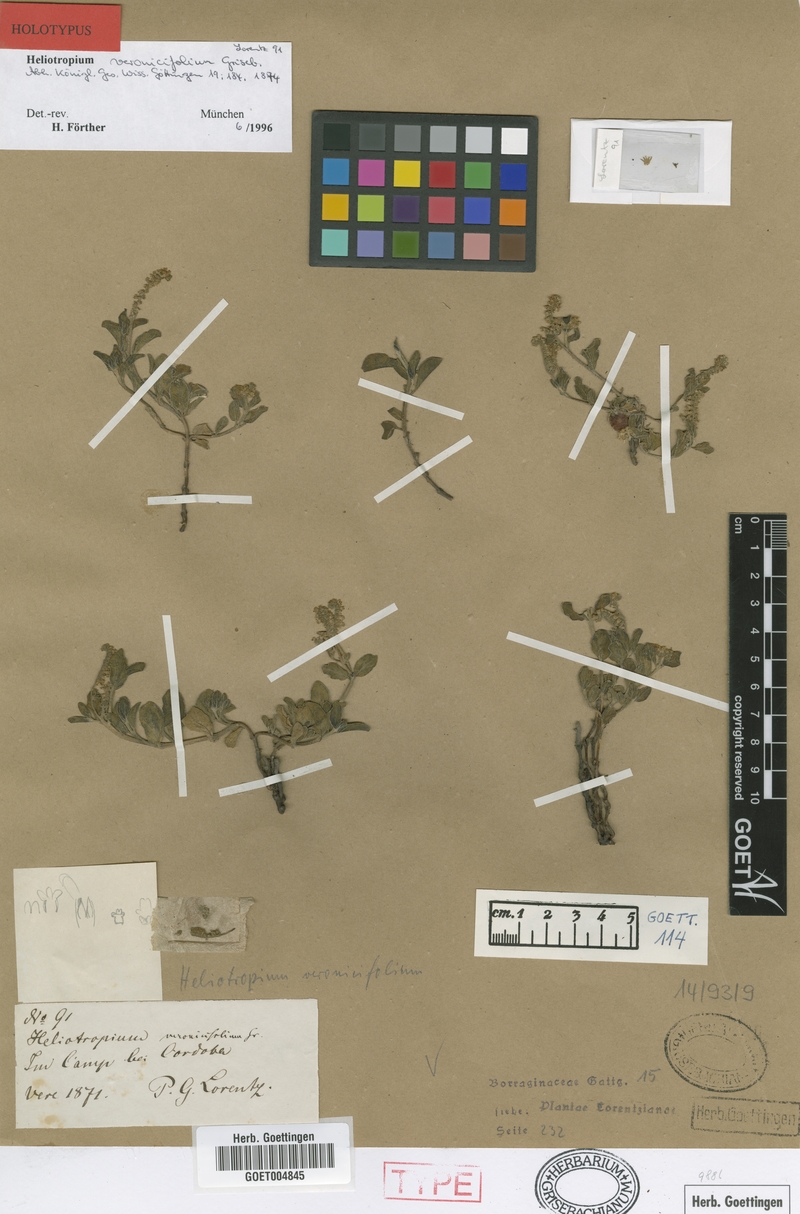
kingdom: Plantae
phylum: Tracheophyta
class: Magnoliopsida
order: Boraginales
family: Heliotropiaceae
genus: Heliotropium
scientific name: Heliotropium veronicifolium
